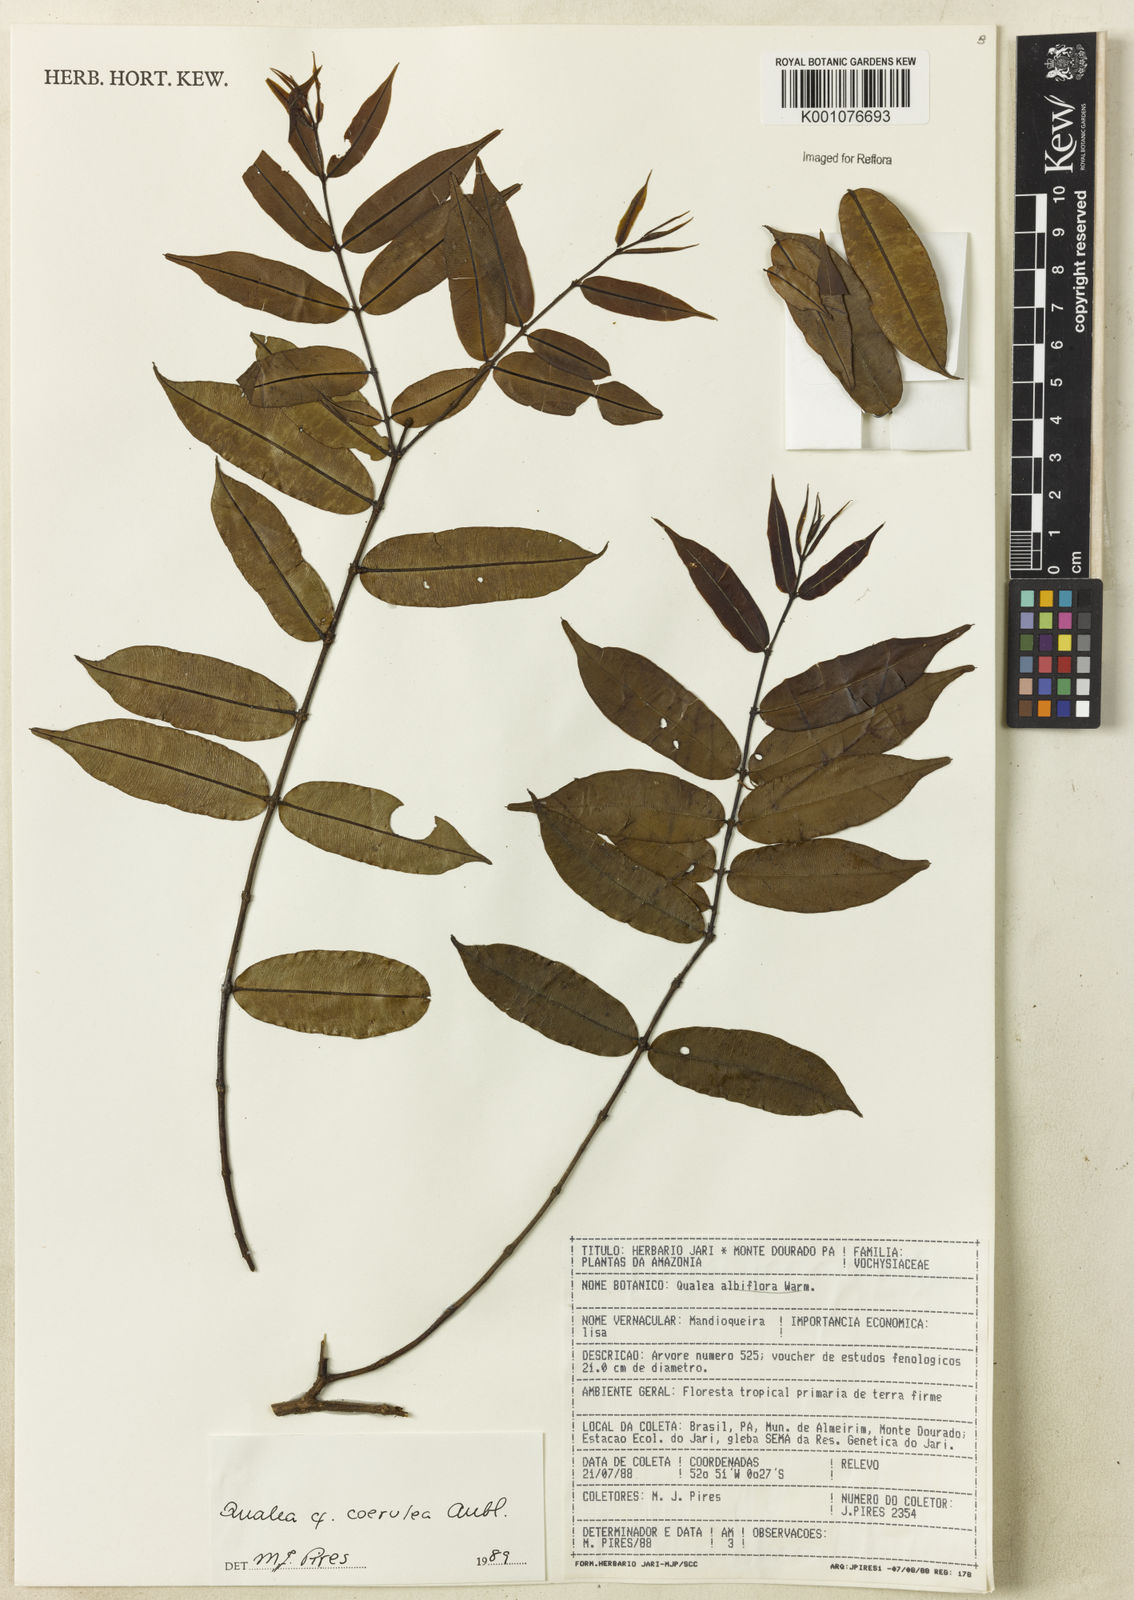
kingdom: Plantae
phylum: Tracheophyta
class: Magnoliopsida
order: Myrtales
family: Vochysiaceae
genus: Qualea
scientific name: Qualea
